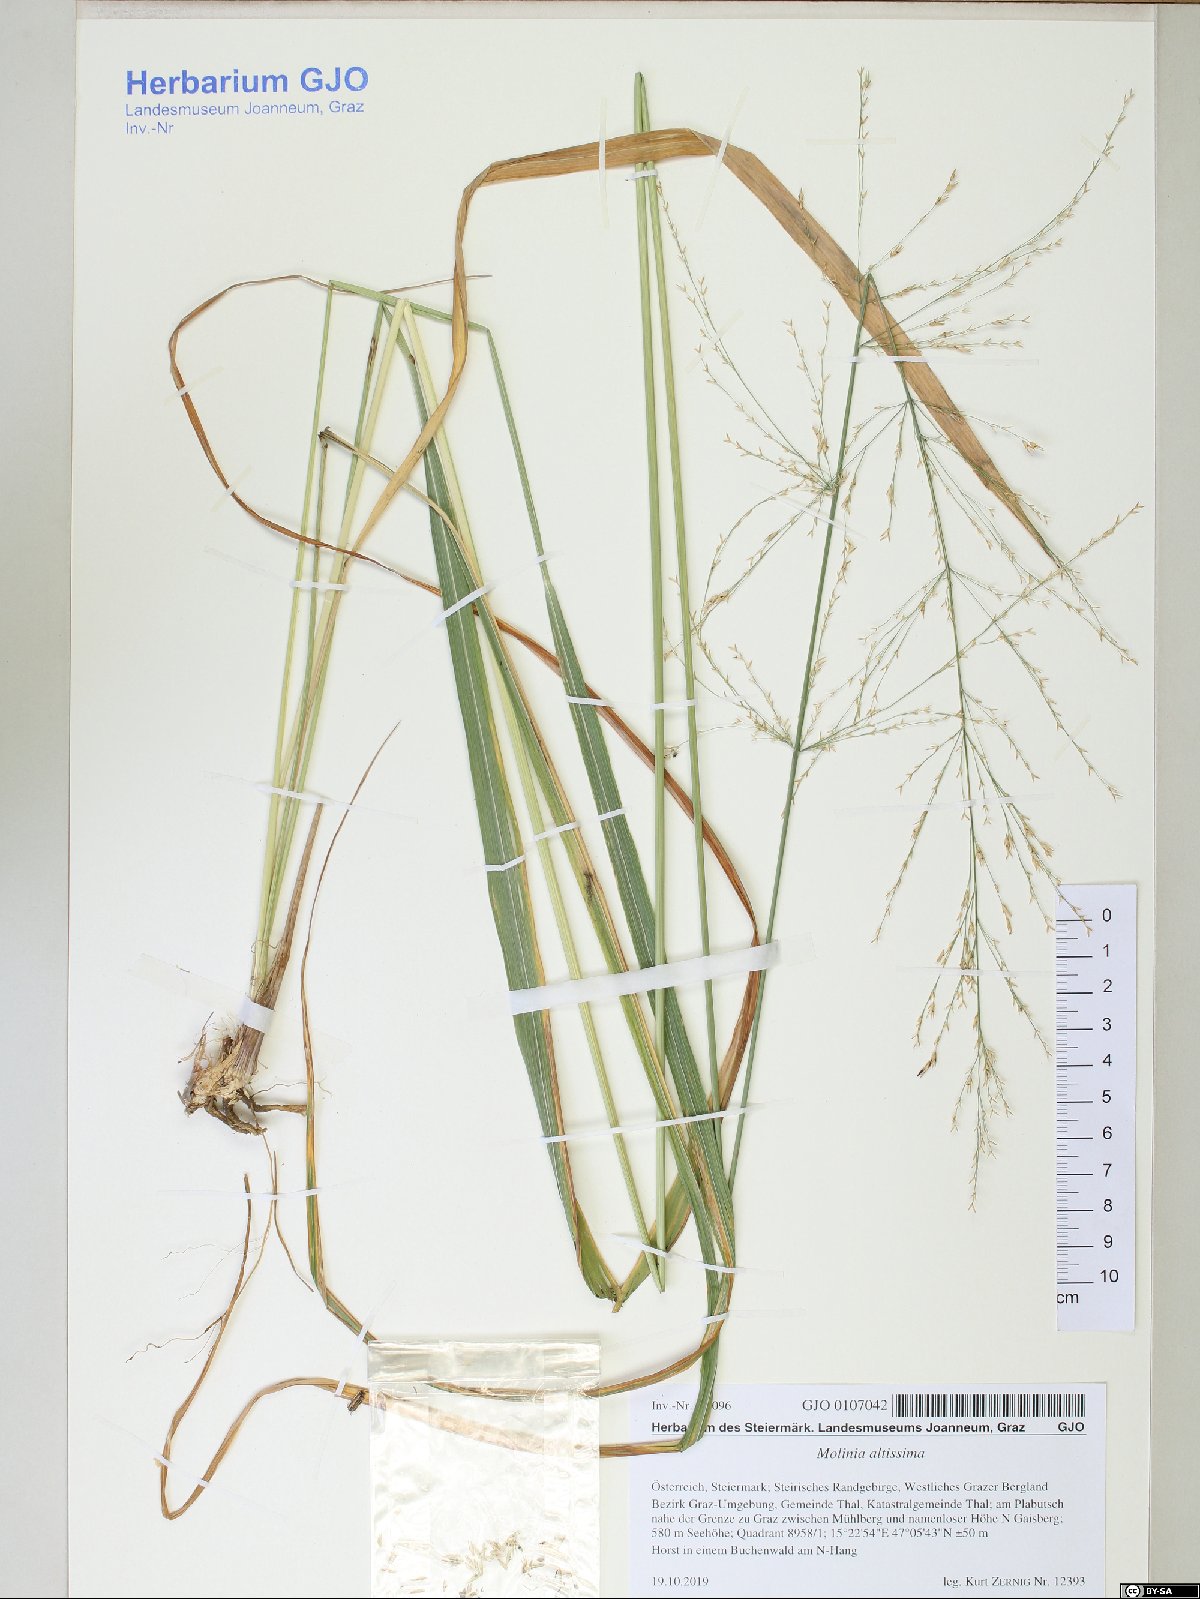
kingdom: Plantae
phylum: Tracheophyta
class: Liliopsida
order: Poales
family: Poaceae
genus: Molinia
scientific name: Molinia arundinacea
